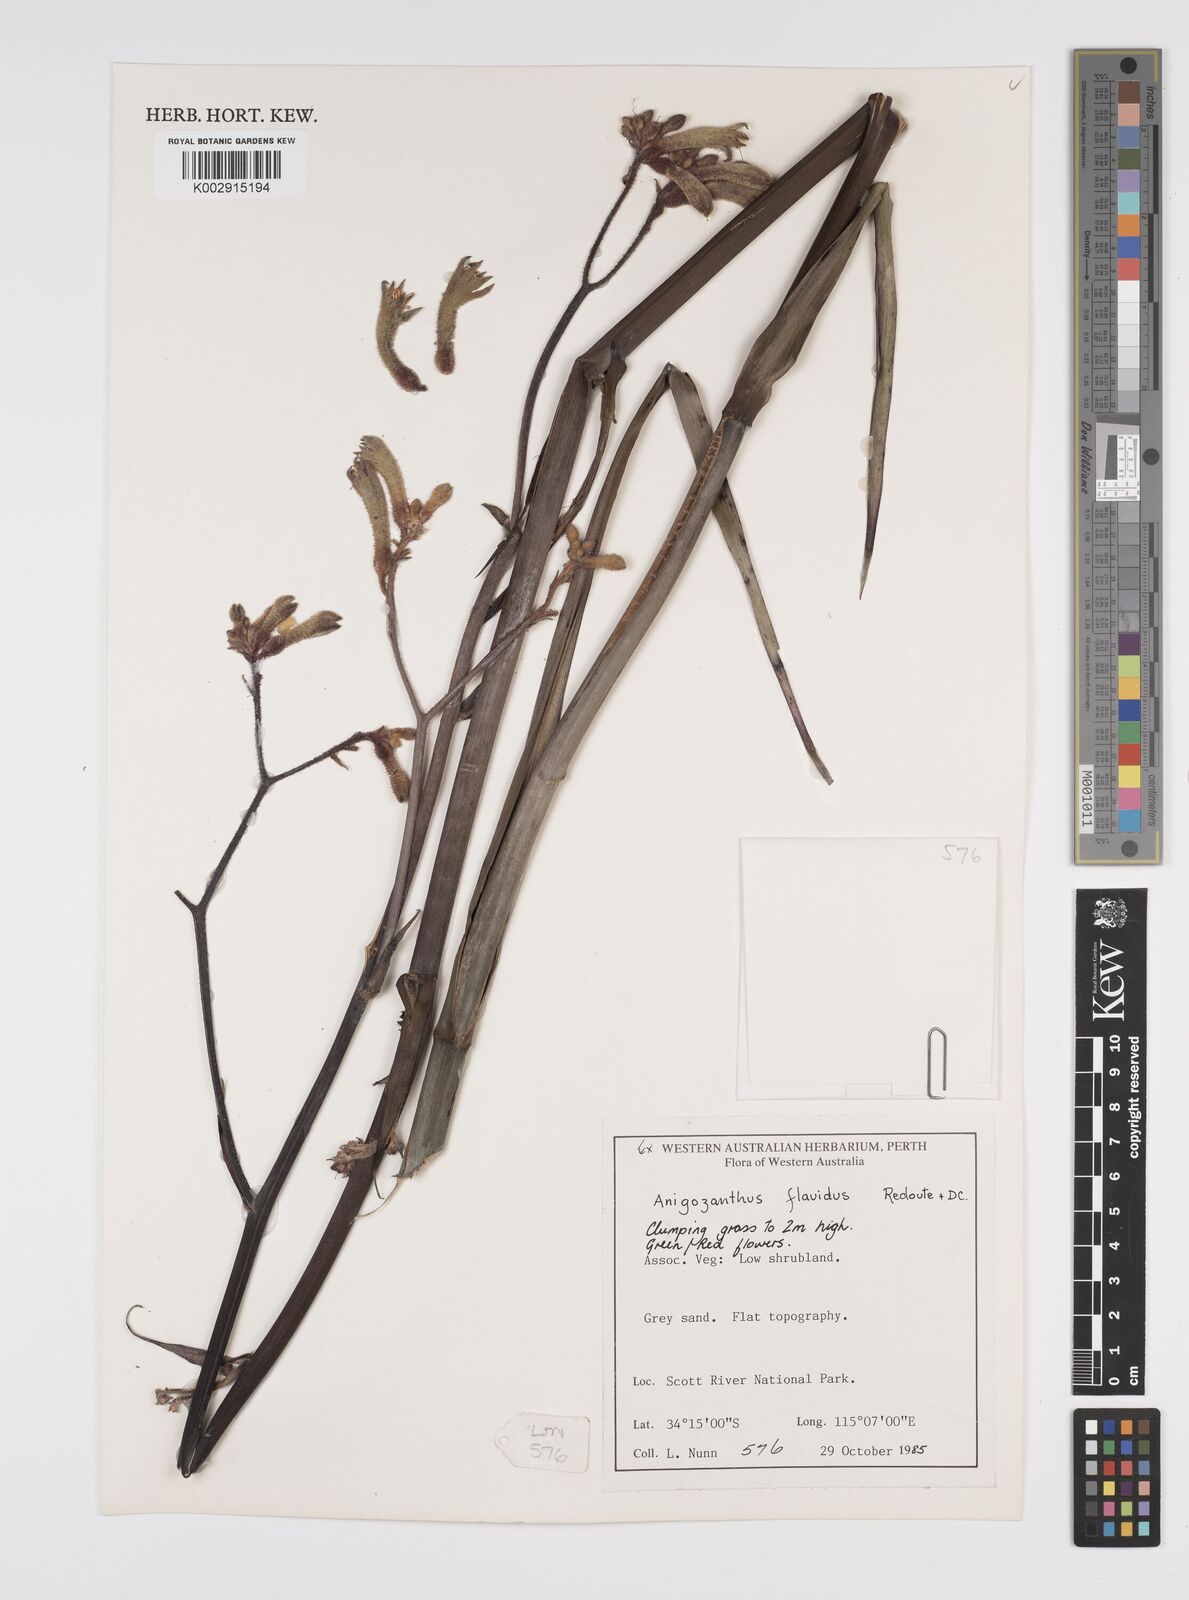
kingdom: Plantae
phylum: Tracheophyta
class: Liliopsida
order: Commelinales
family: Haemodoraceae
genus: Anigozanthos
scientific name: Anigozanthos flavidus
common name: Evergreen kangaroo-paw
